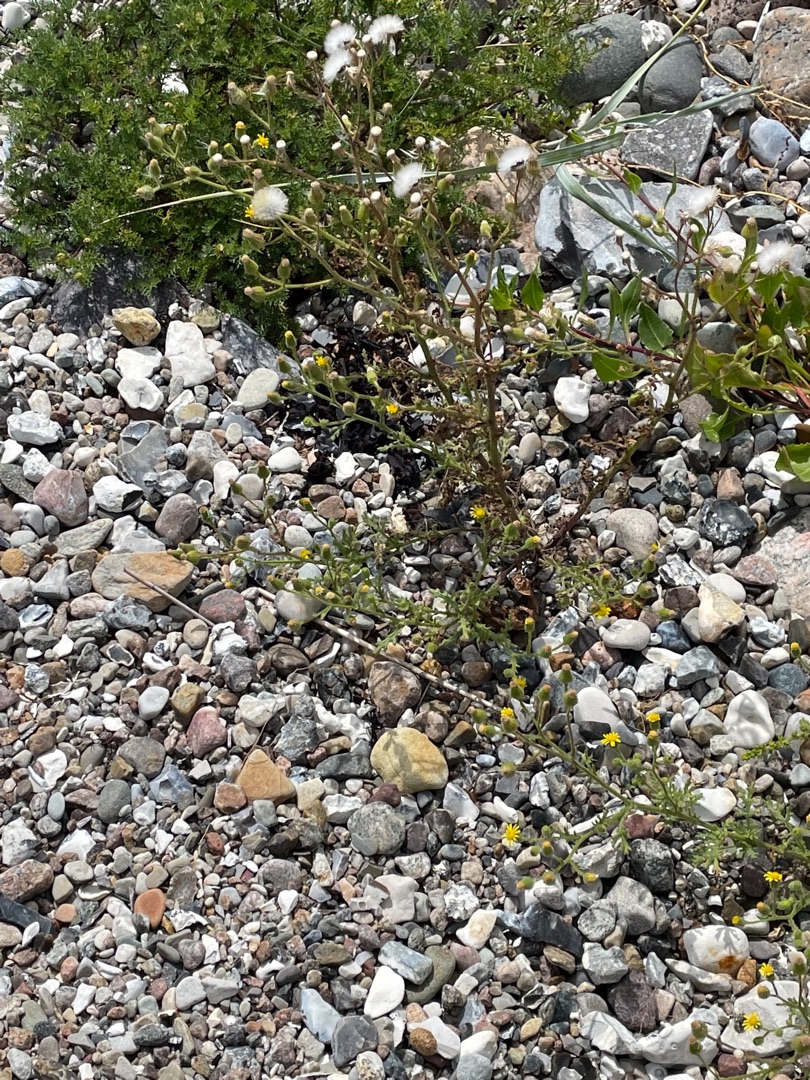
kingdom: Plantae
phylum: Tracheophyta
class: Magnoliopsida
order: Asterales
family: Asteraceae
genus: Senecio
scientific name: Senecio viscosus
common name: Klæbrig brandbæger
